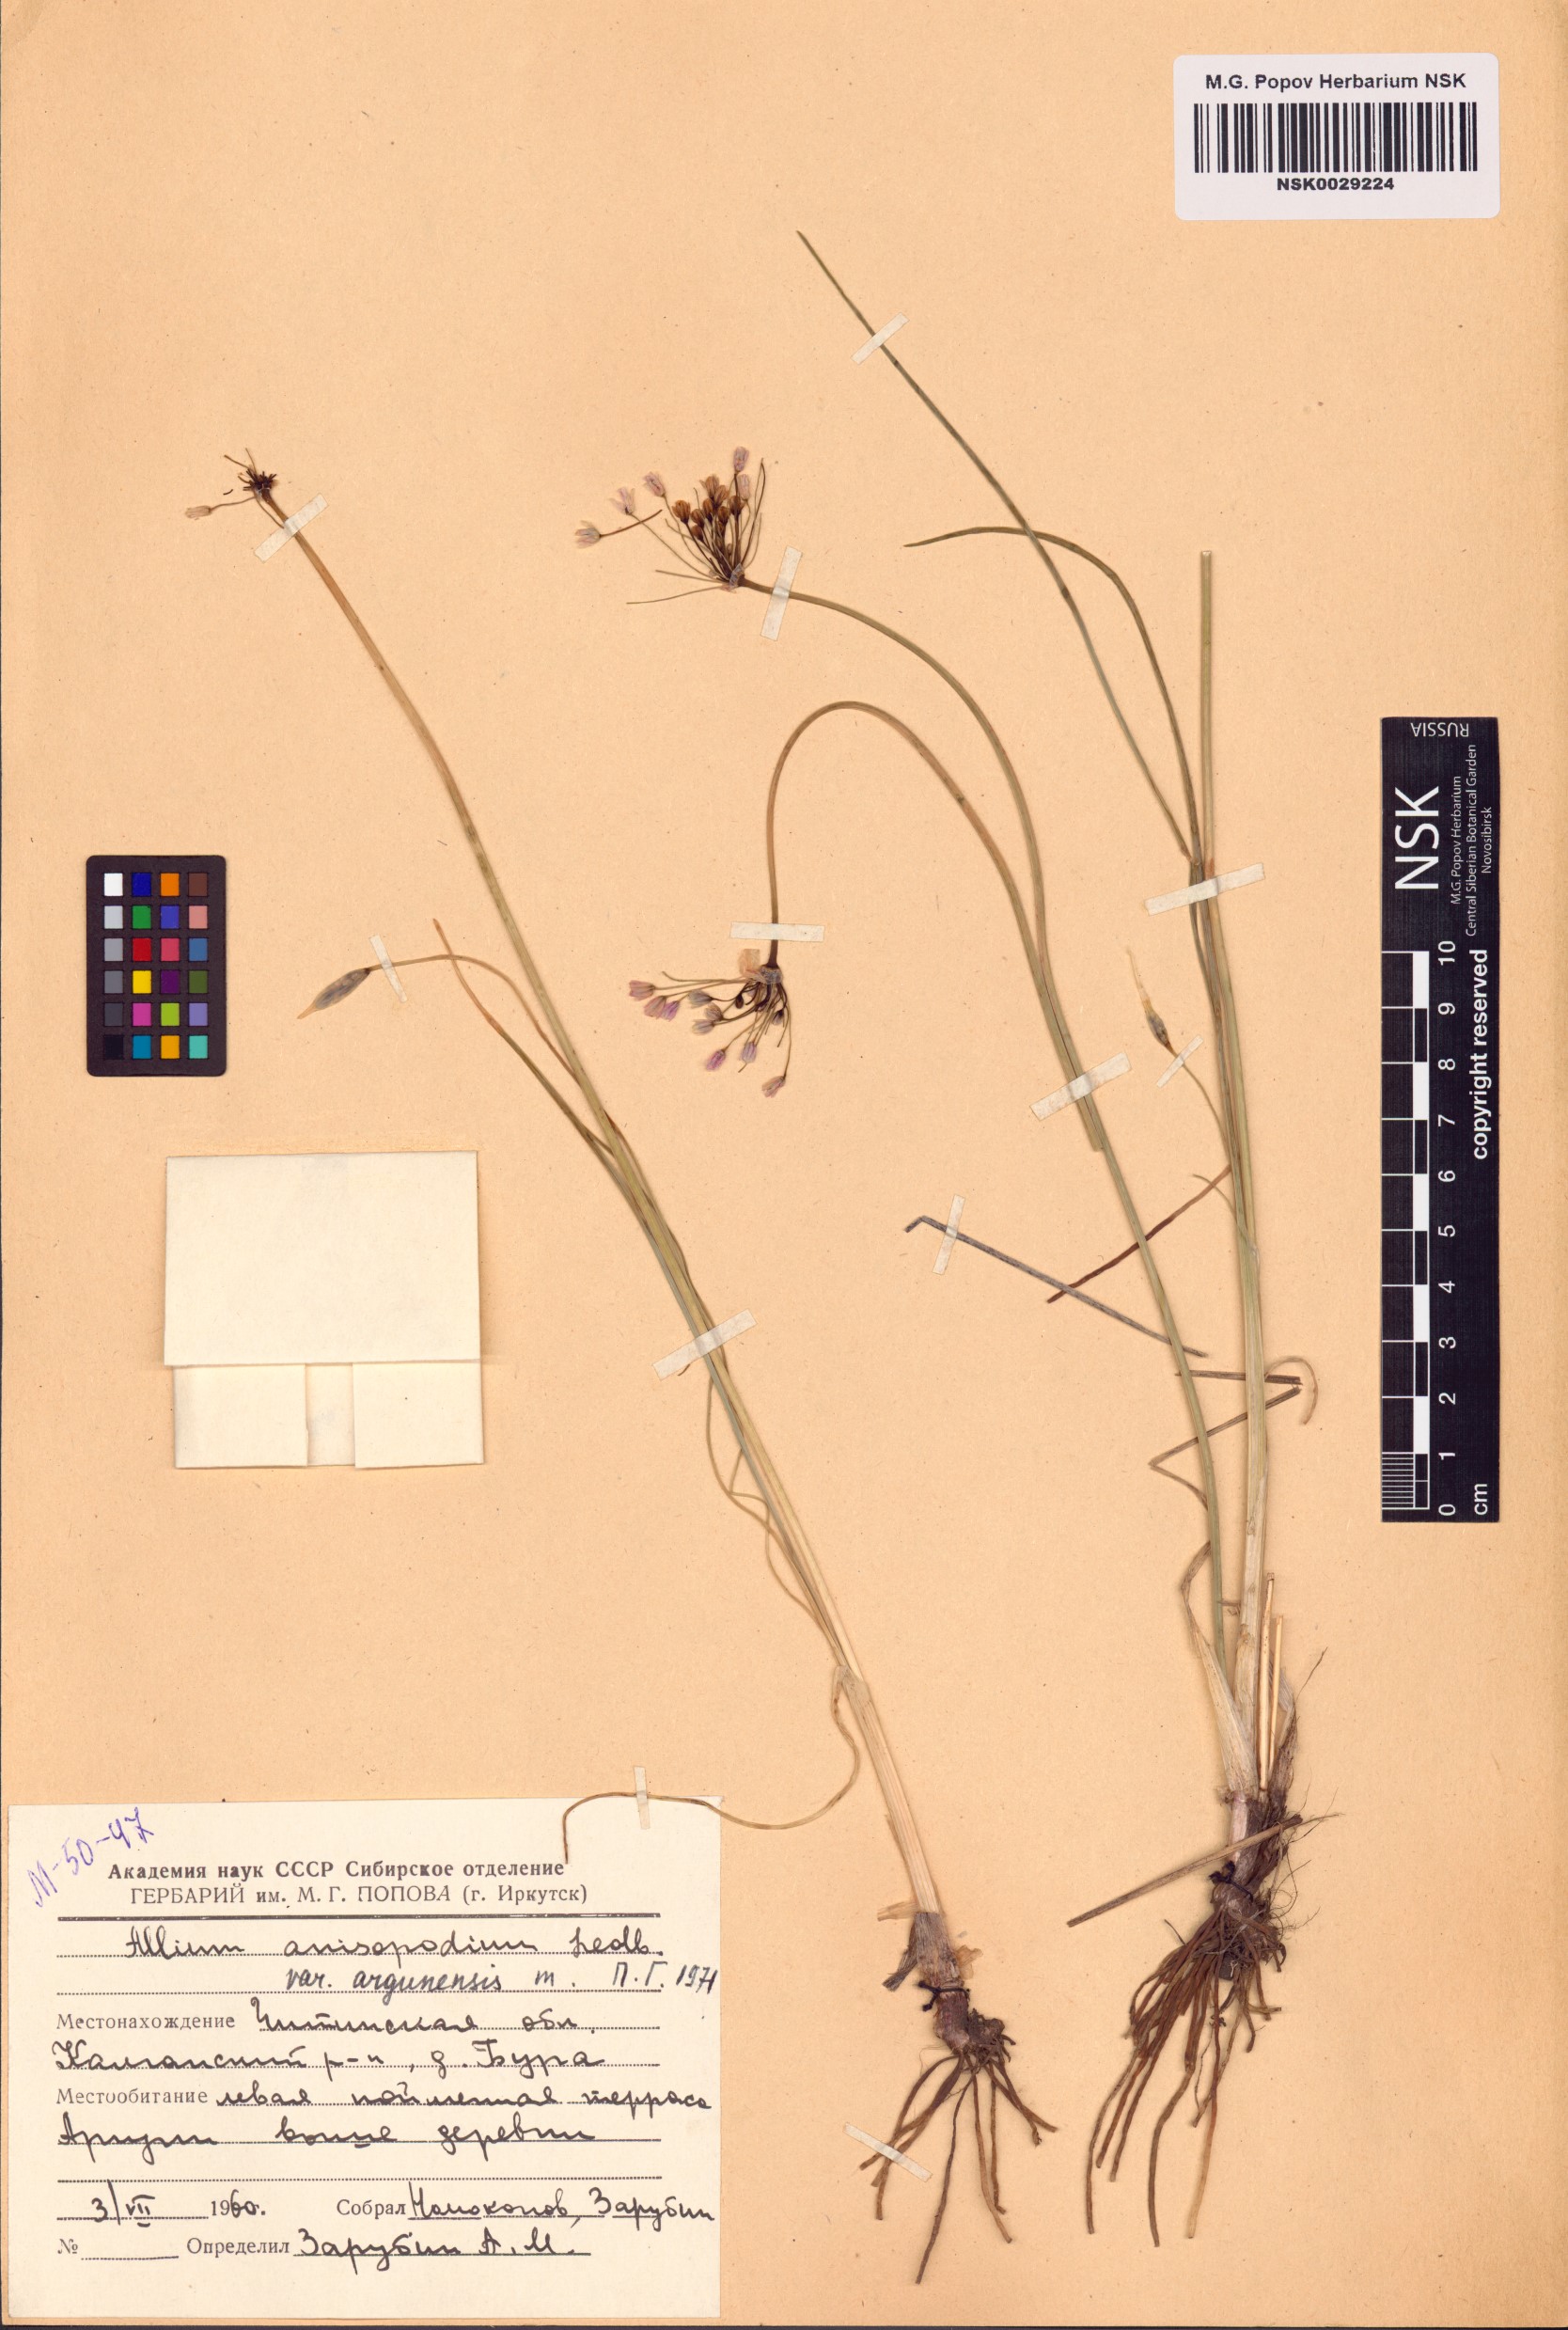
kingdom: Plantae
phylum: Tracheophyta
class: Liliopsida
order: Asparagales
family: Amaryllidaceae
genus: Allium
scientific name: Allium anisopodium
